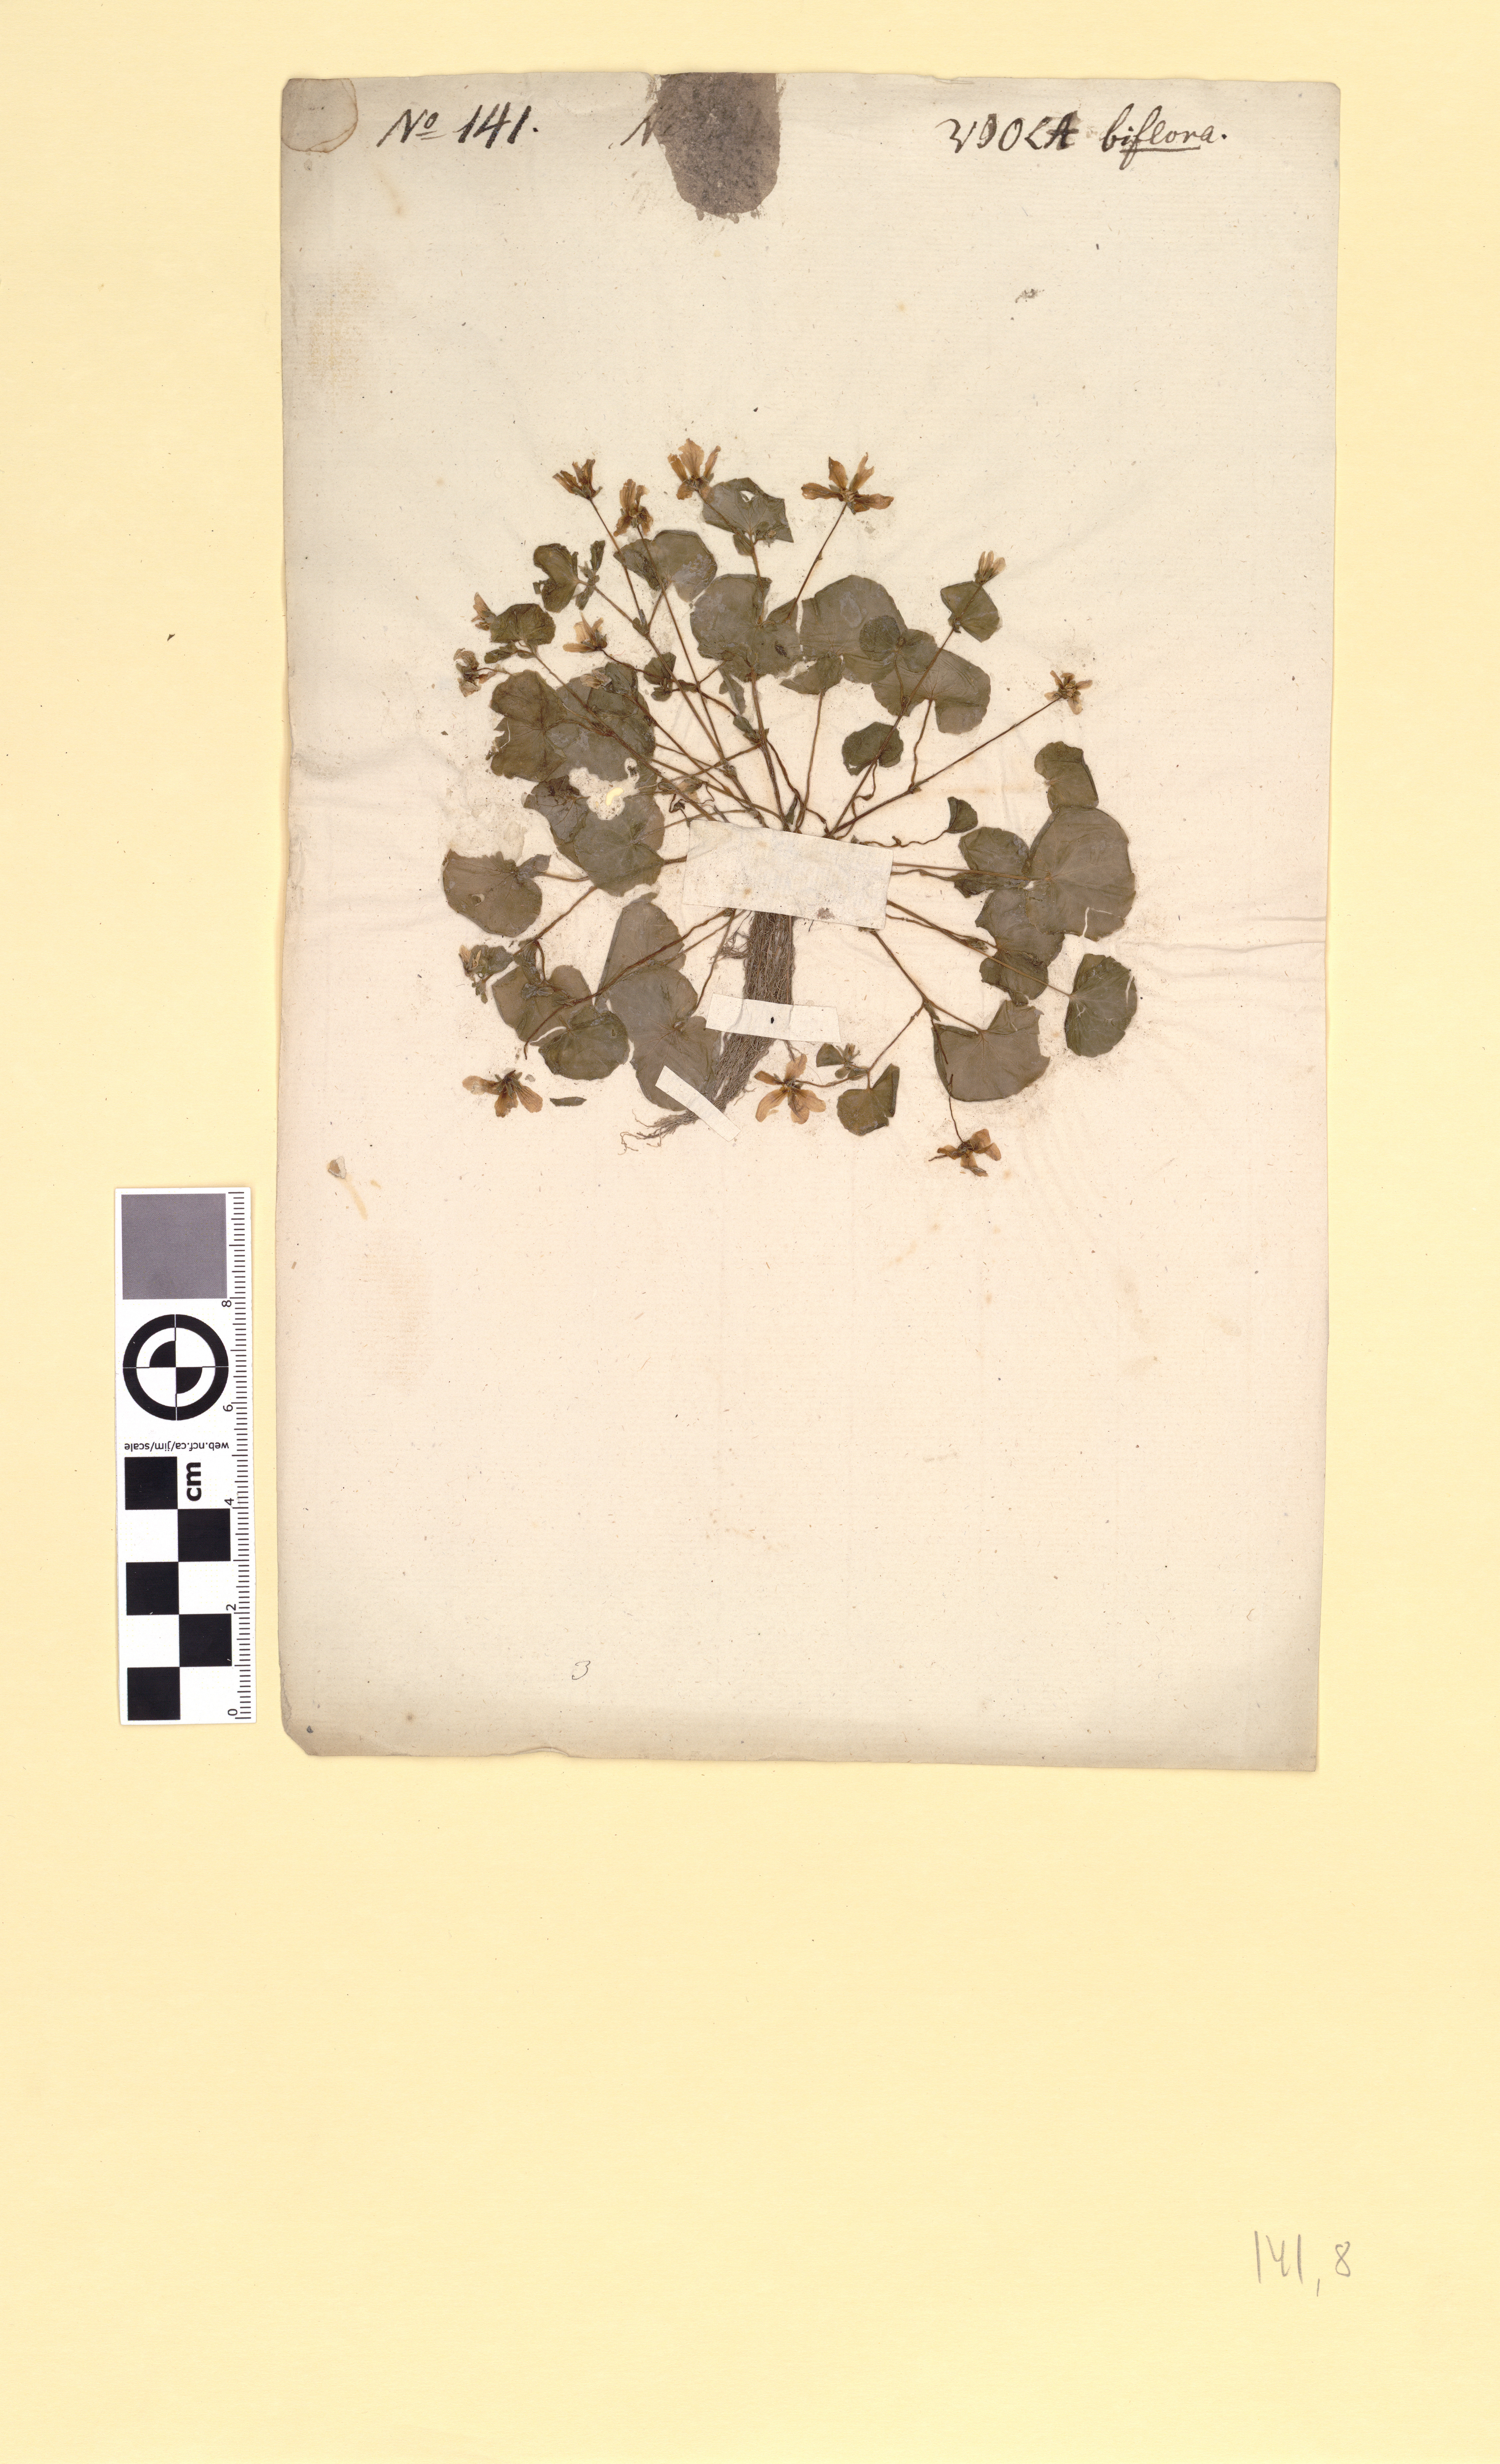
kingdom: Plantae
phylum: Tracheophyta
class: Magnoliopsida
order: Malpighiales
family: Violaceae
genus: Viola
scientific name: Viola biflora
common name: Alpine yellow violet
